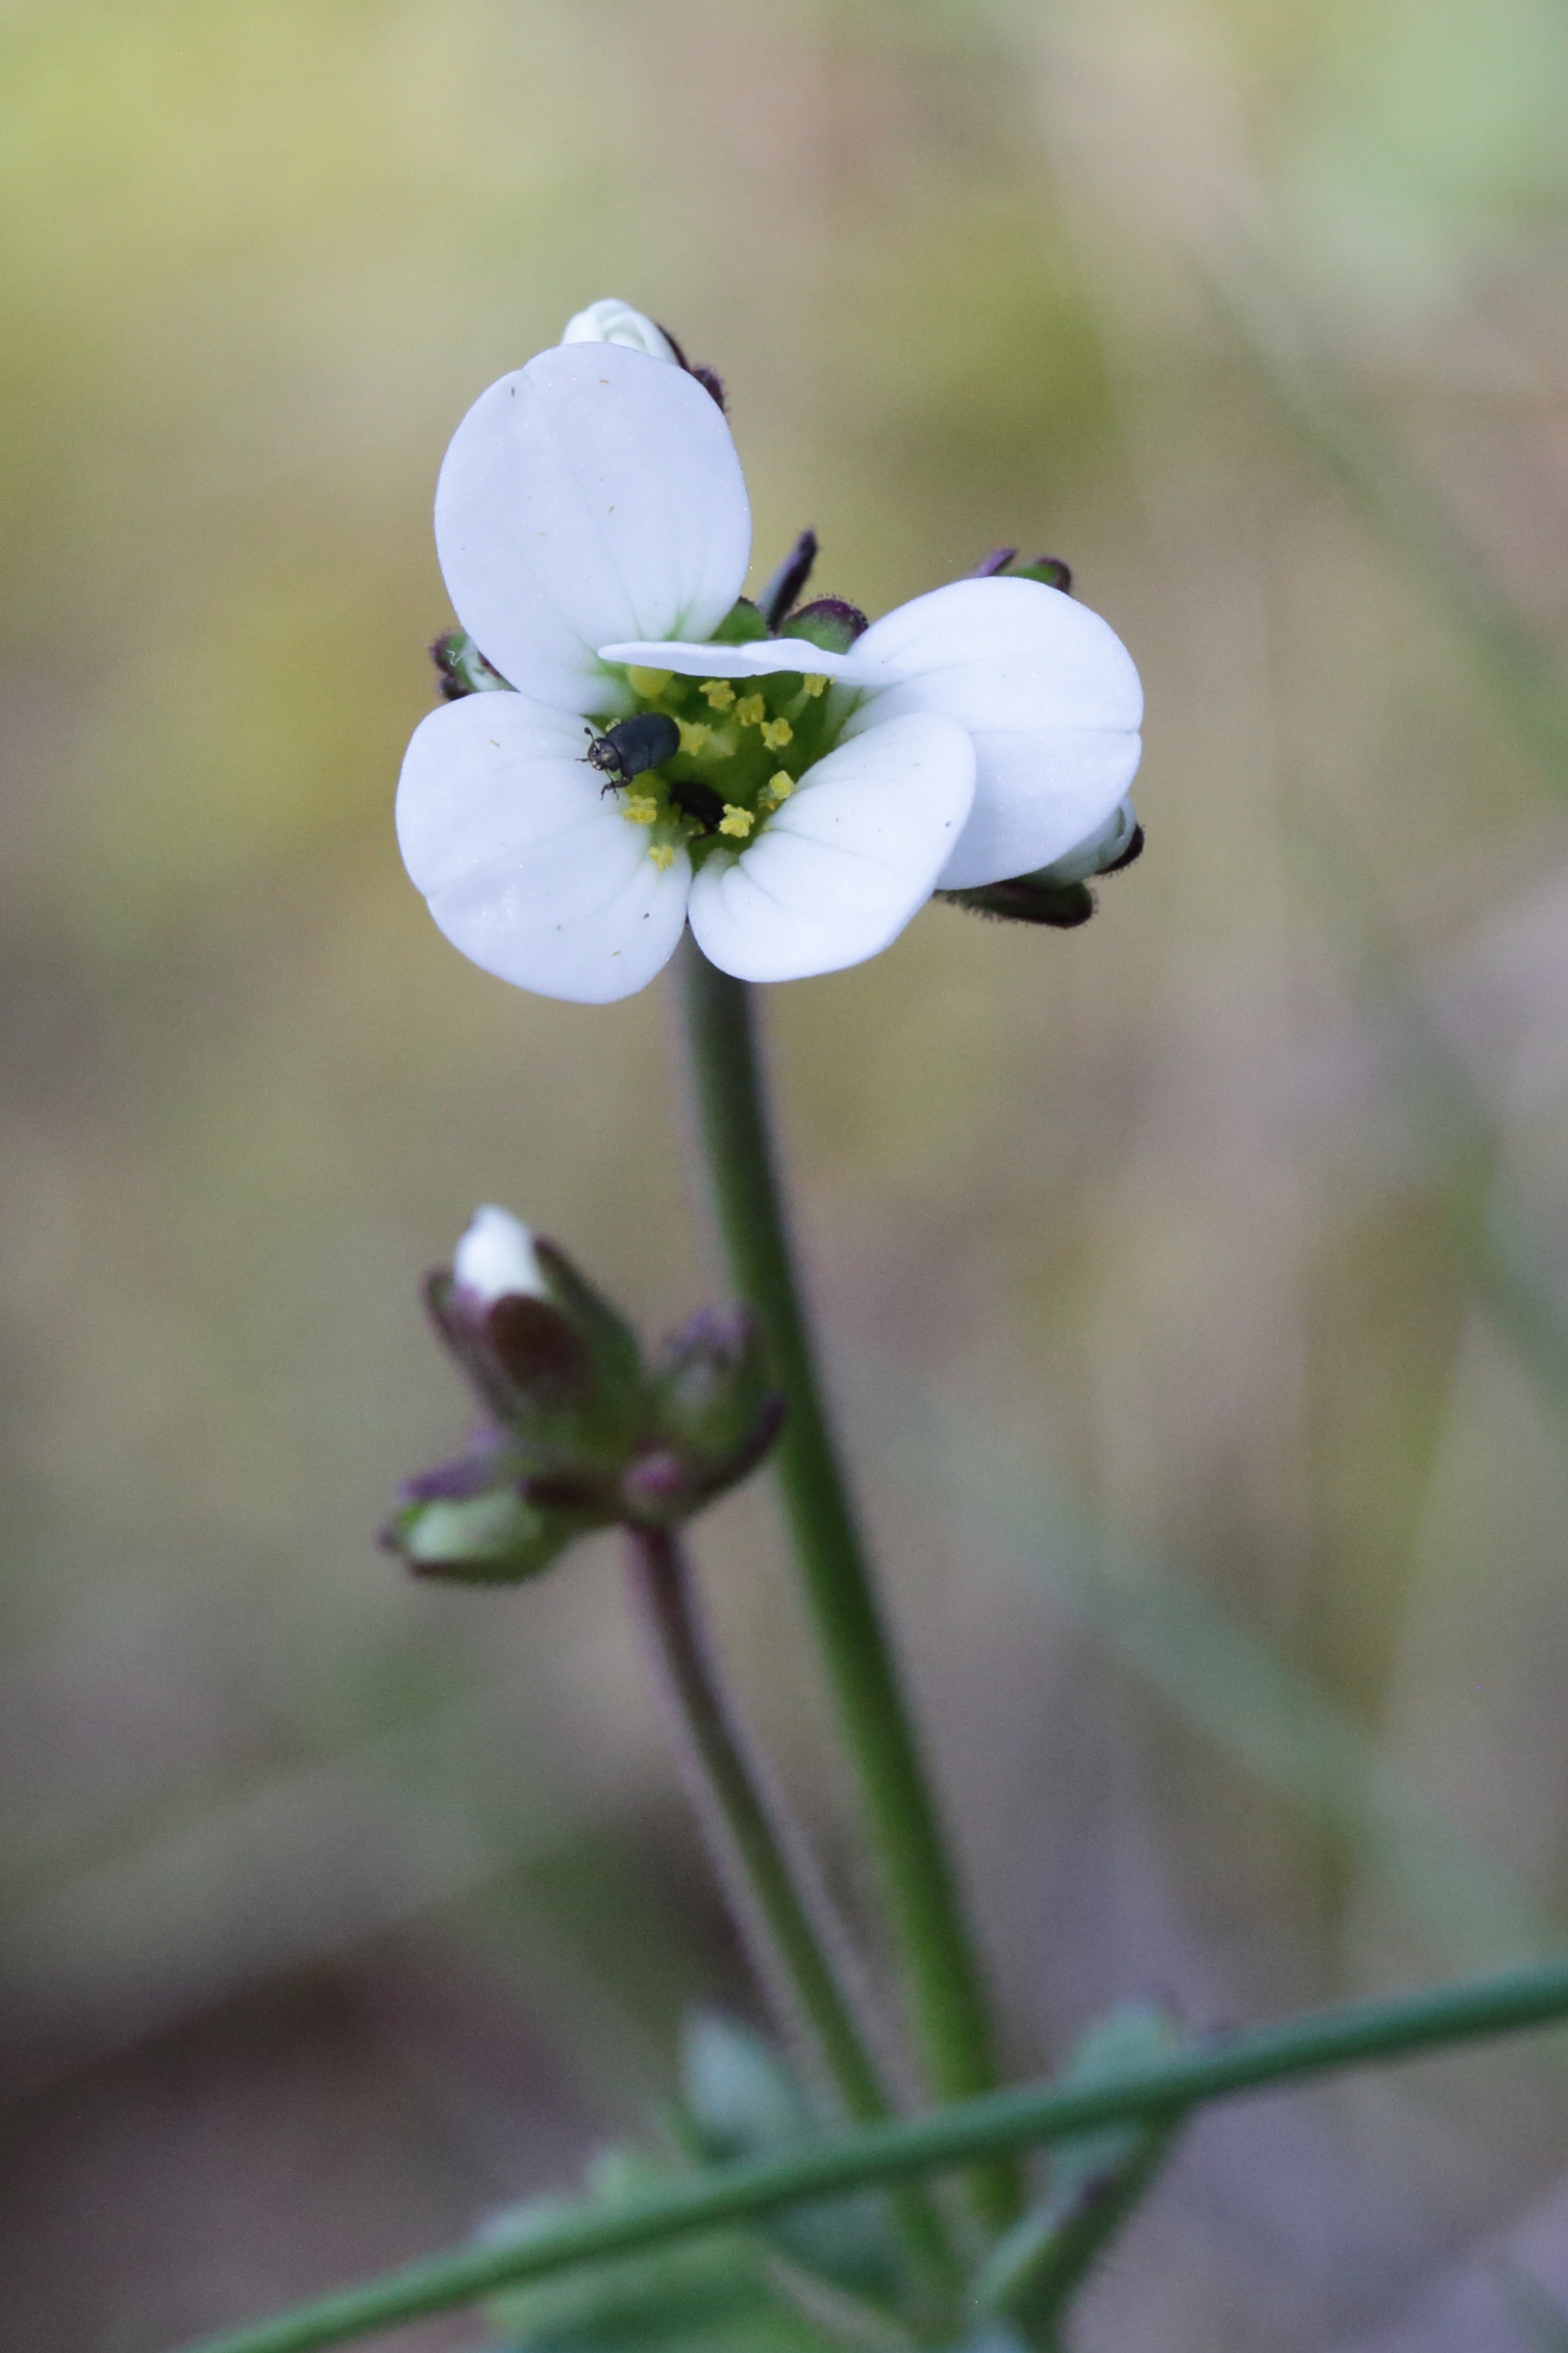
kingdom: Plantae
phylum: Tracheophyta
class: Magnoliopsida
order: Saxifragales
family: Saxifragaceae
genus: Saxifraga
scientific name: Saxifraga granulata
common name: Kornet stenbræk
